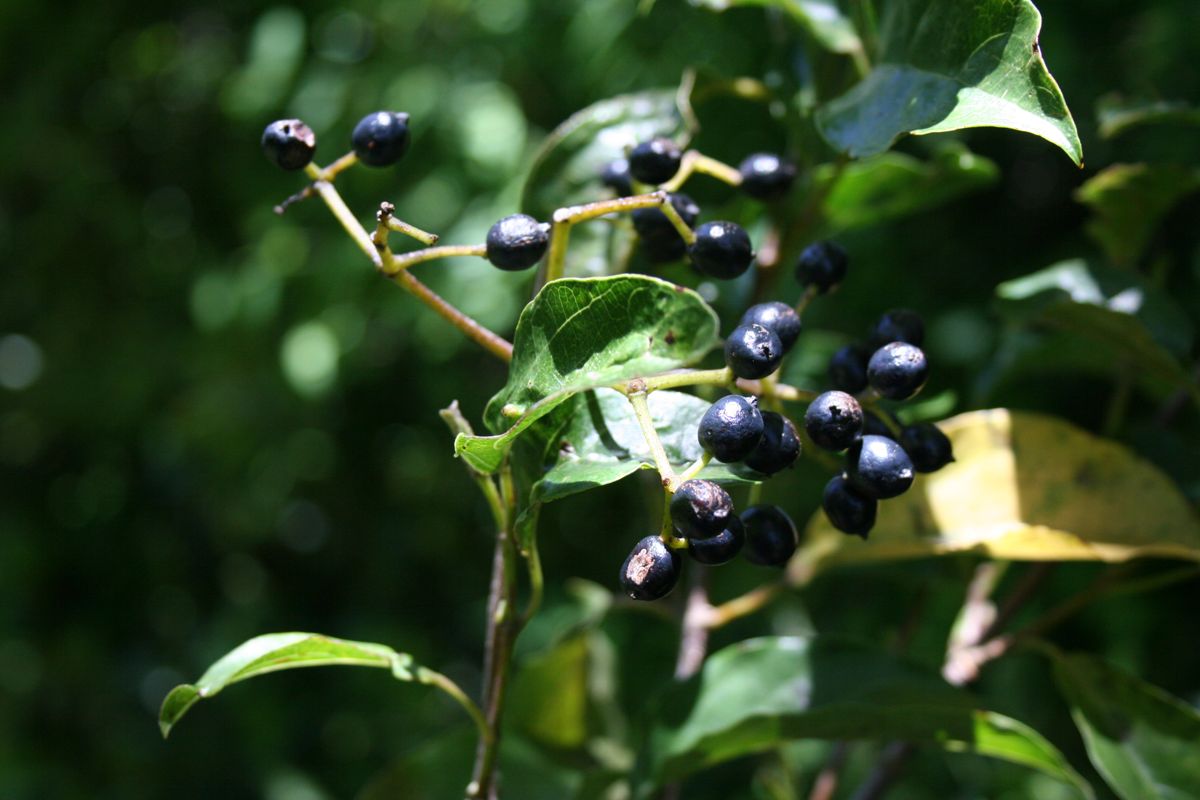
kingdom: Plantae
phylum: Tracheophyta
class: Magnoliopsida
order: Dipsacales
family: Viburnaceae
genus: Viburnum
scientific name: Viburnum hartwegii
